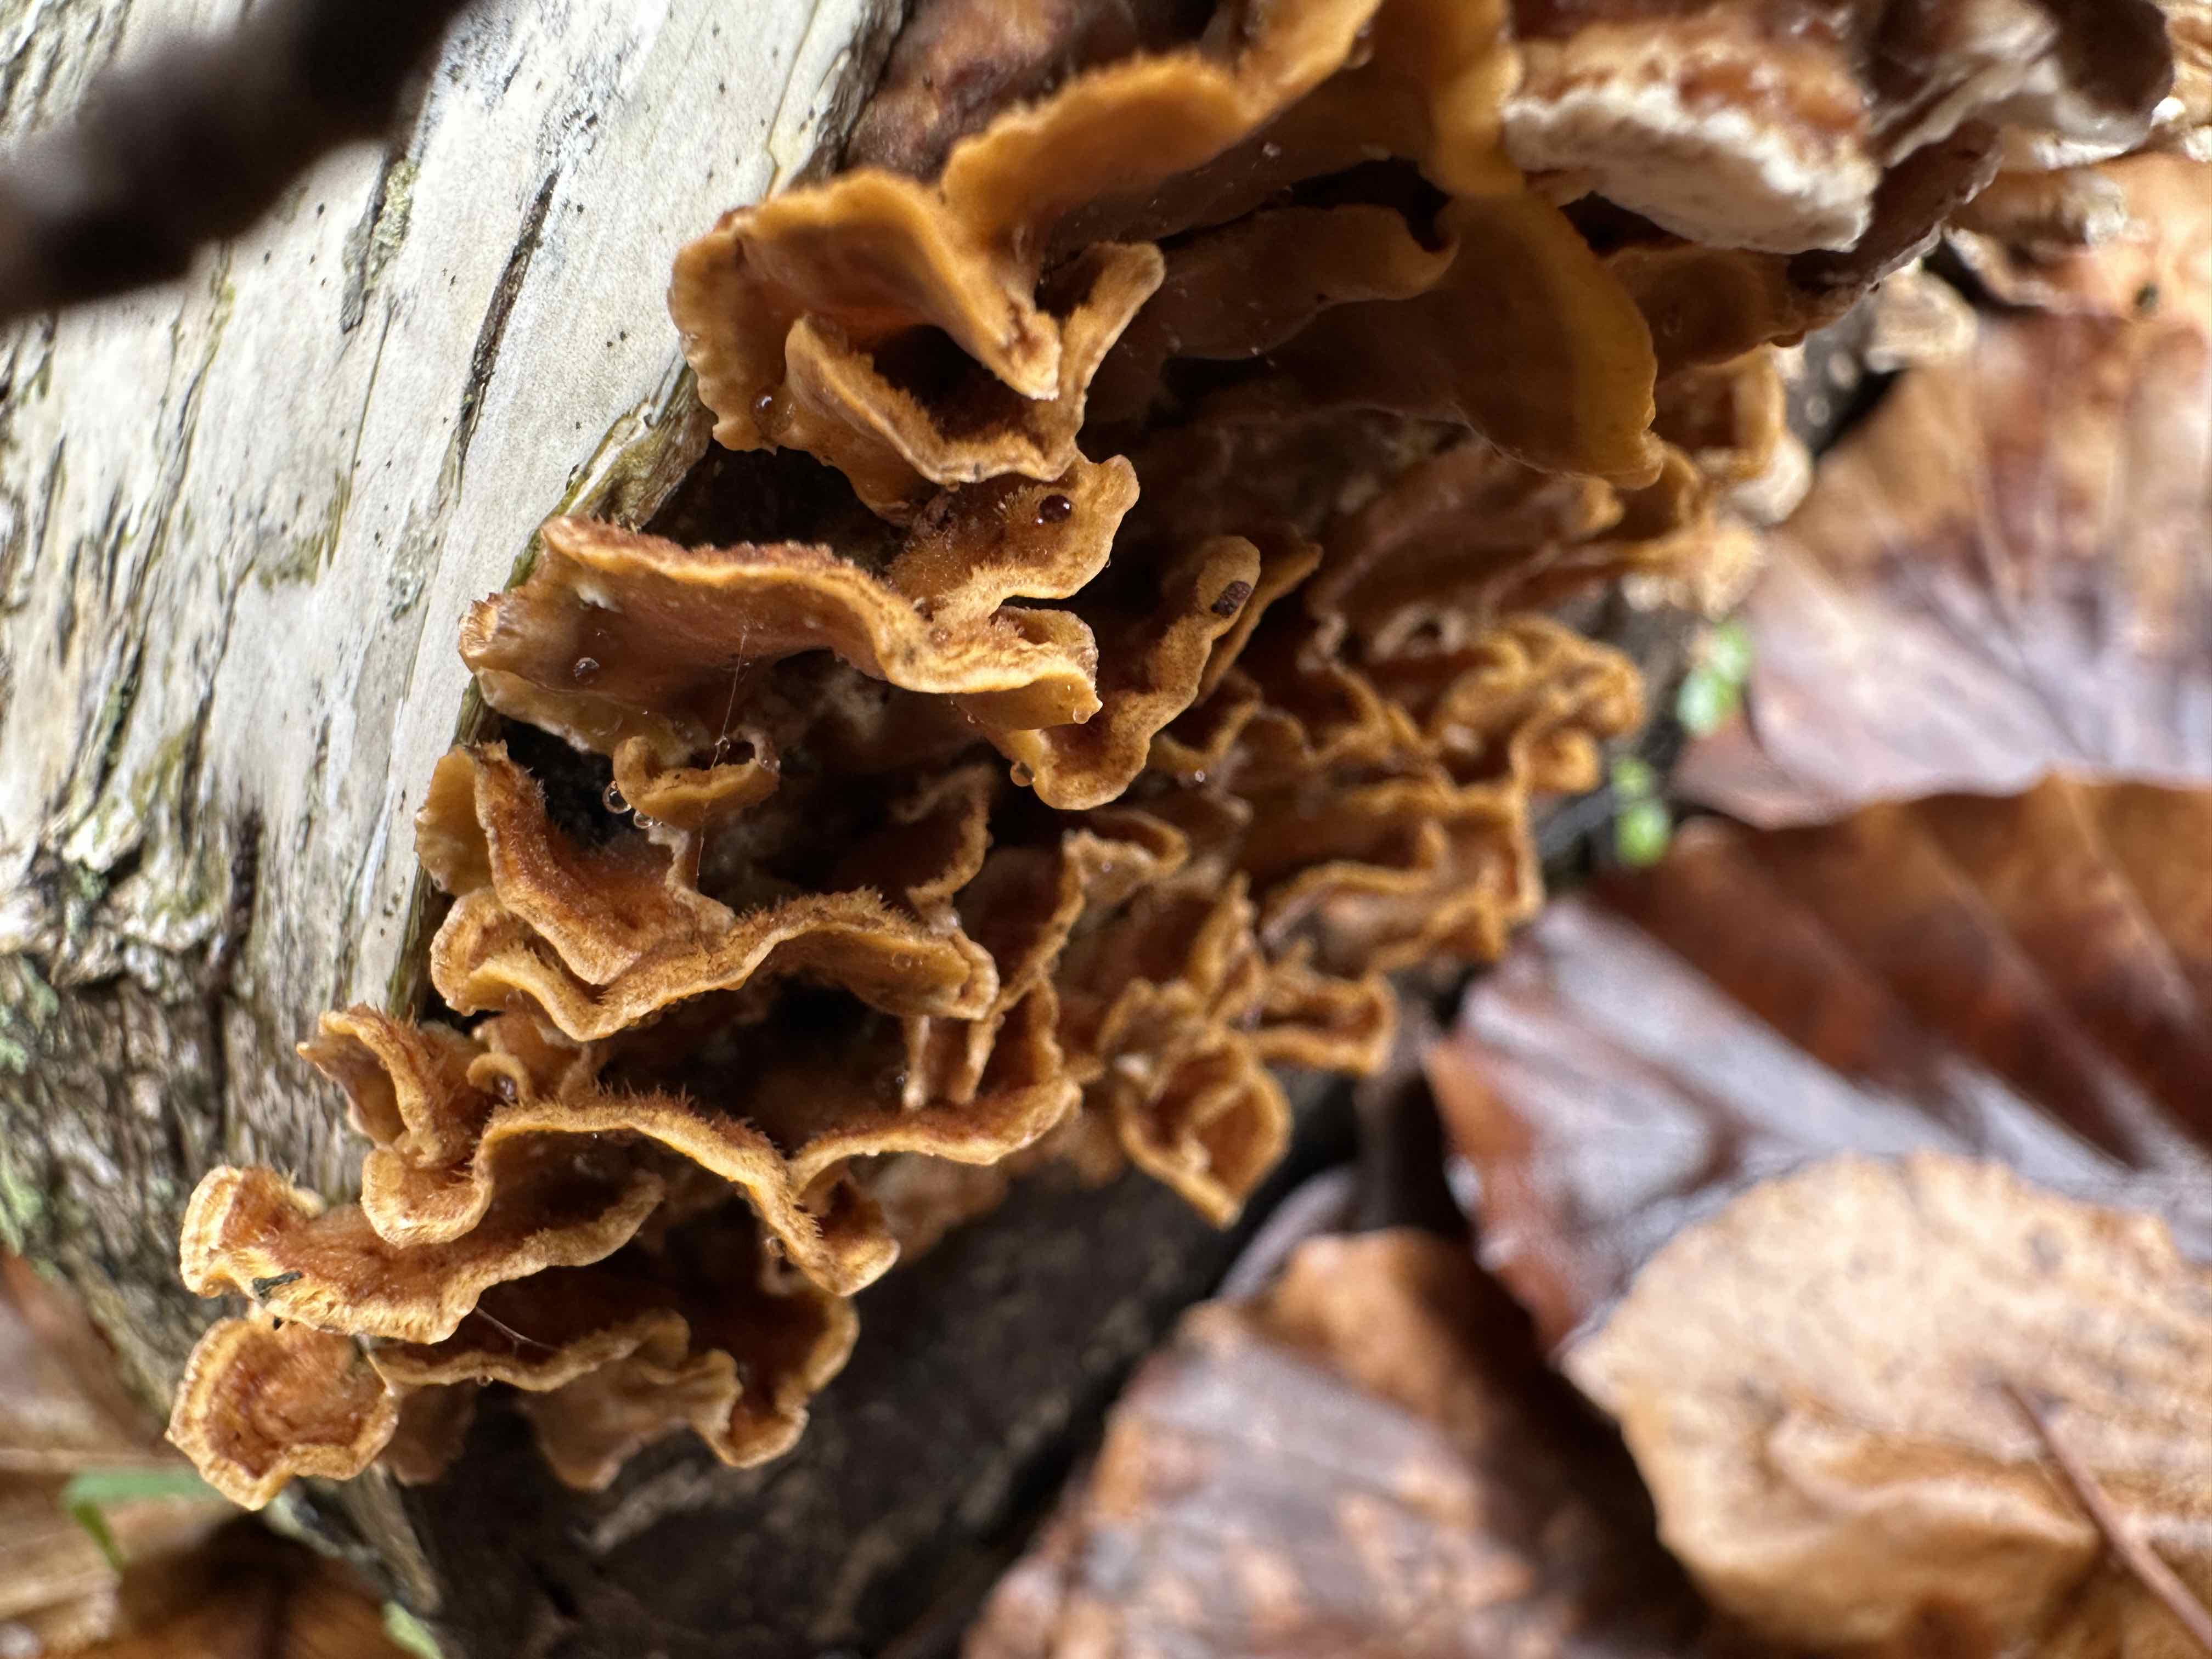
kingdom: Fungi
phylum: Basidiomycota
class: Agaricomycetes
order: Russulales
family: Stereaceae
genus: Stereum
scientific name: Stereum hirsutum
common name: håret lædersvamp
